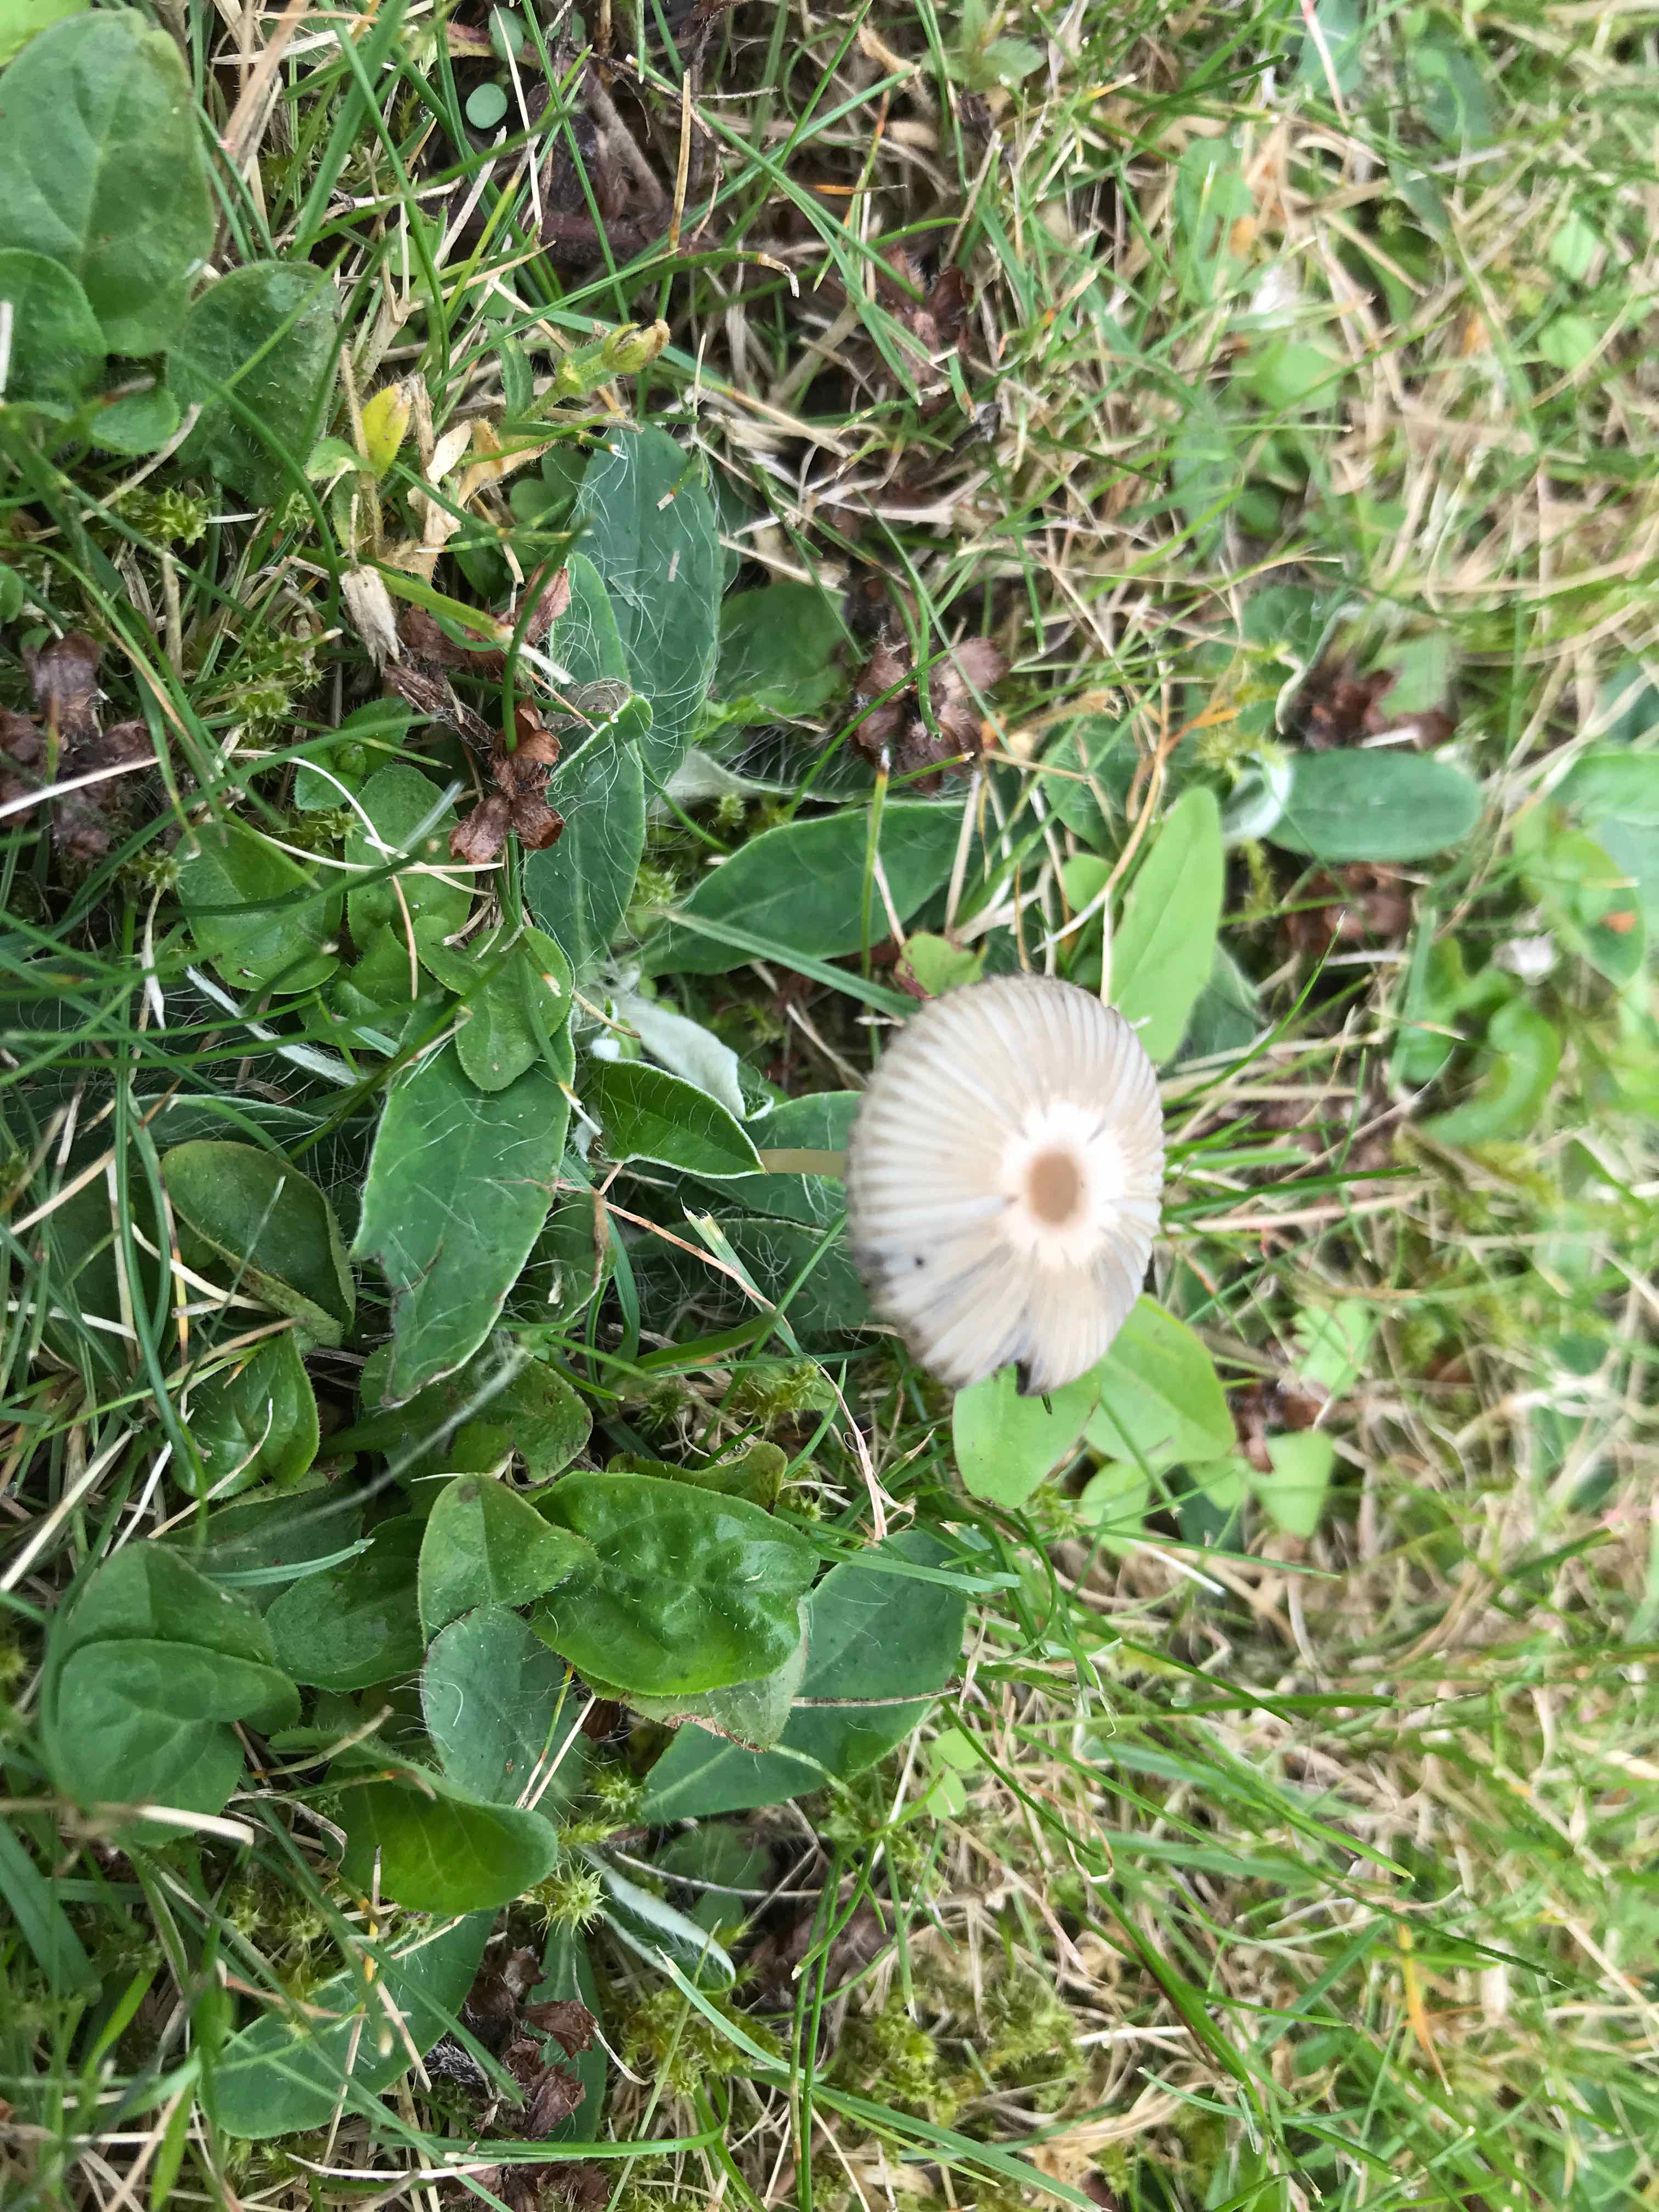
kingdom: Fungi
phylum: Basidiomycota
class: Agaricomycetes
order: Agaricales
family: Psathyrellaceae
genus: Parasola
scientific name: Parasola
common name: hjulhat
